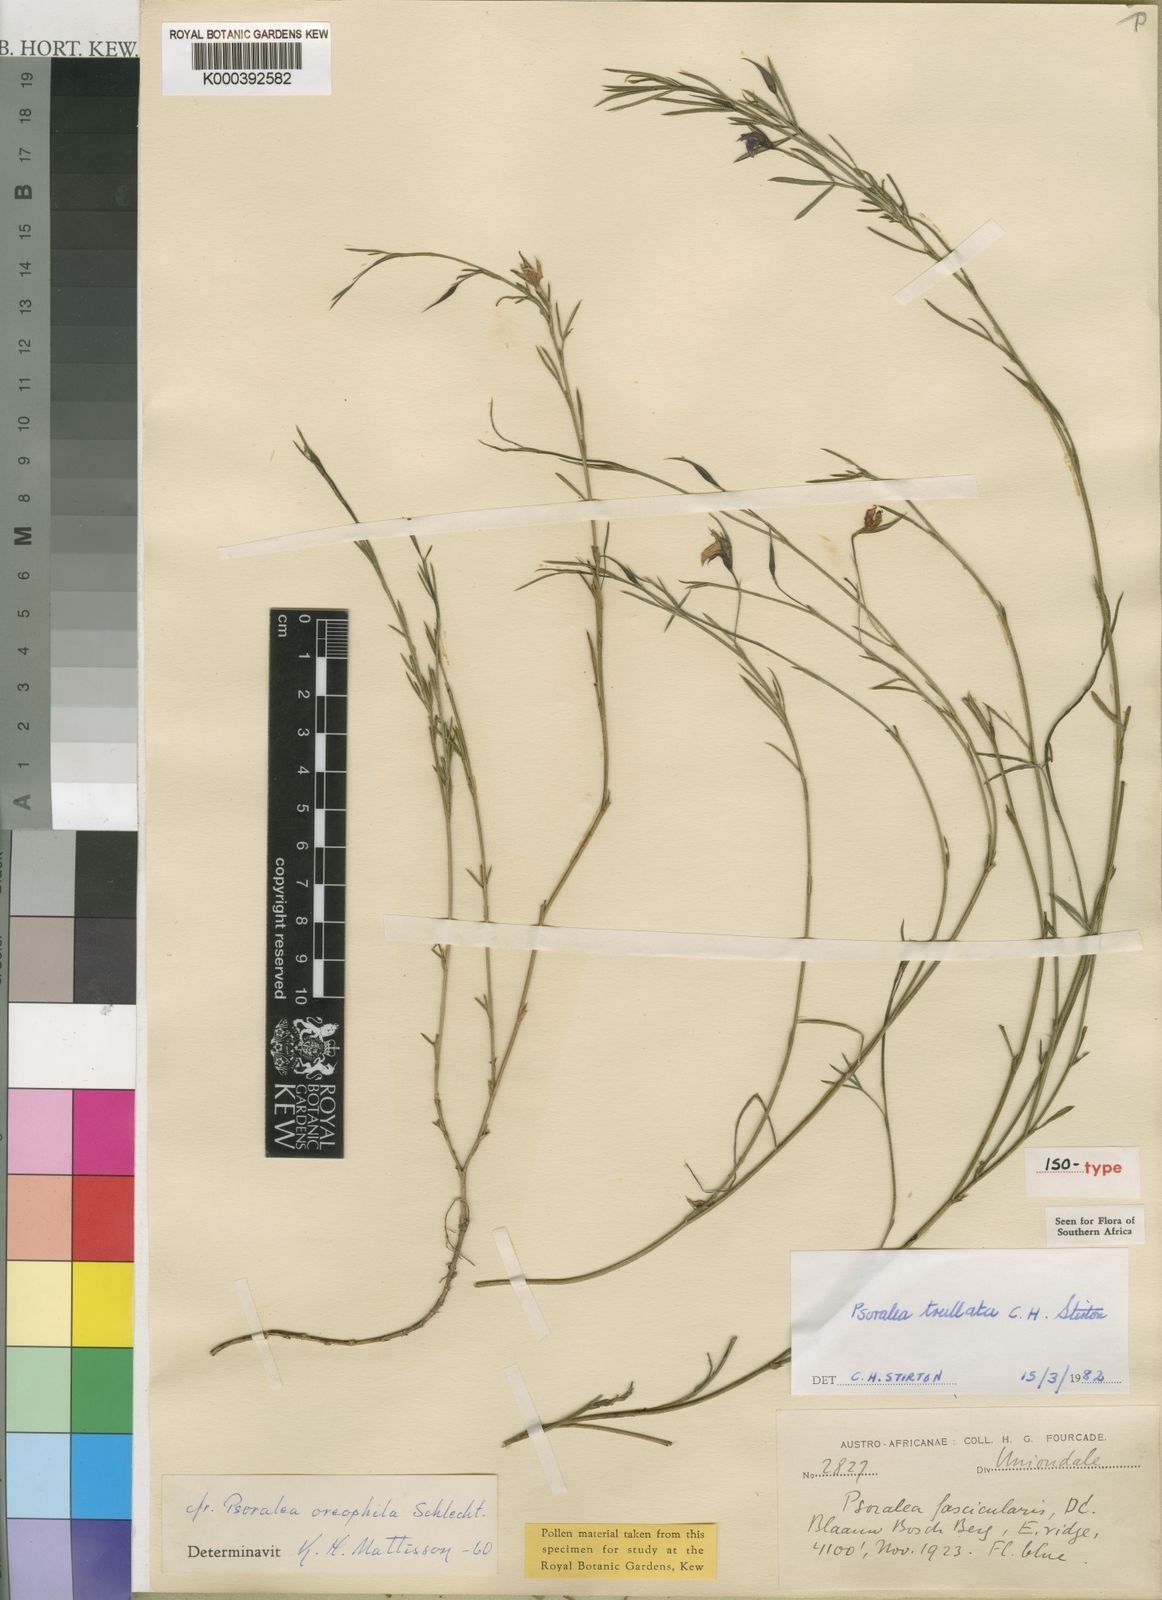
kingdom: Plantae
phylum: Tracheophyta
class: Magnoliopsida
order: Fabales
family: Fabaceae
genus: Psoralea
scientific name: Psoralea trullata
